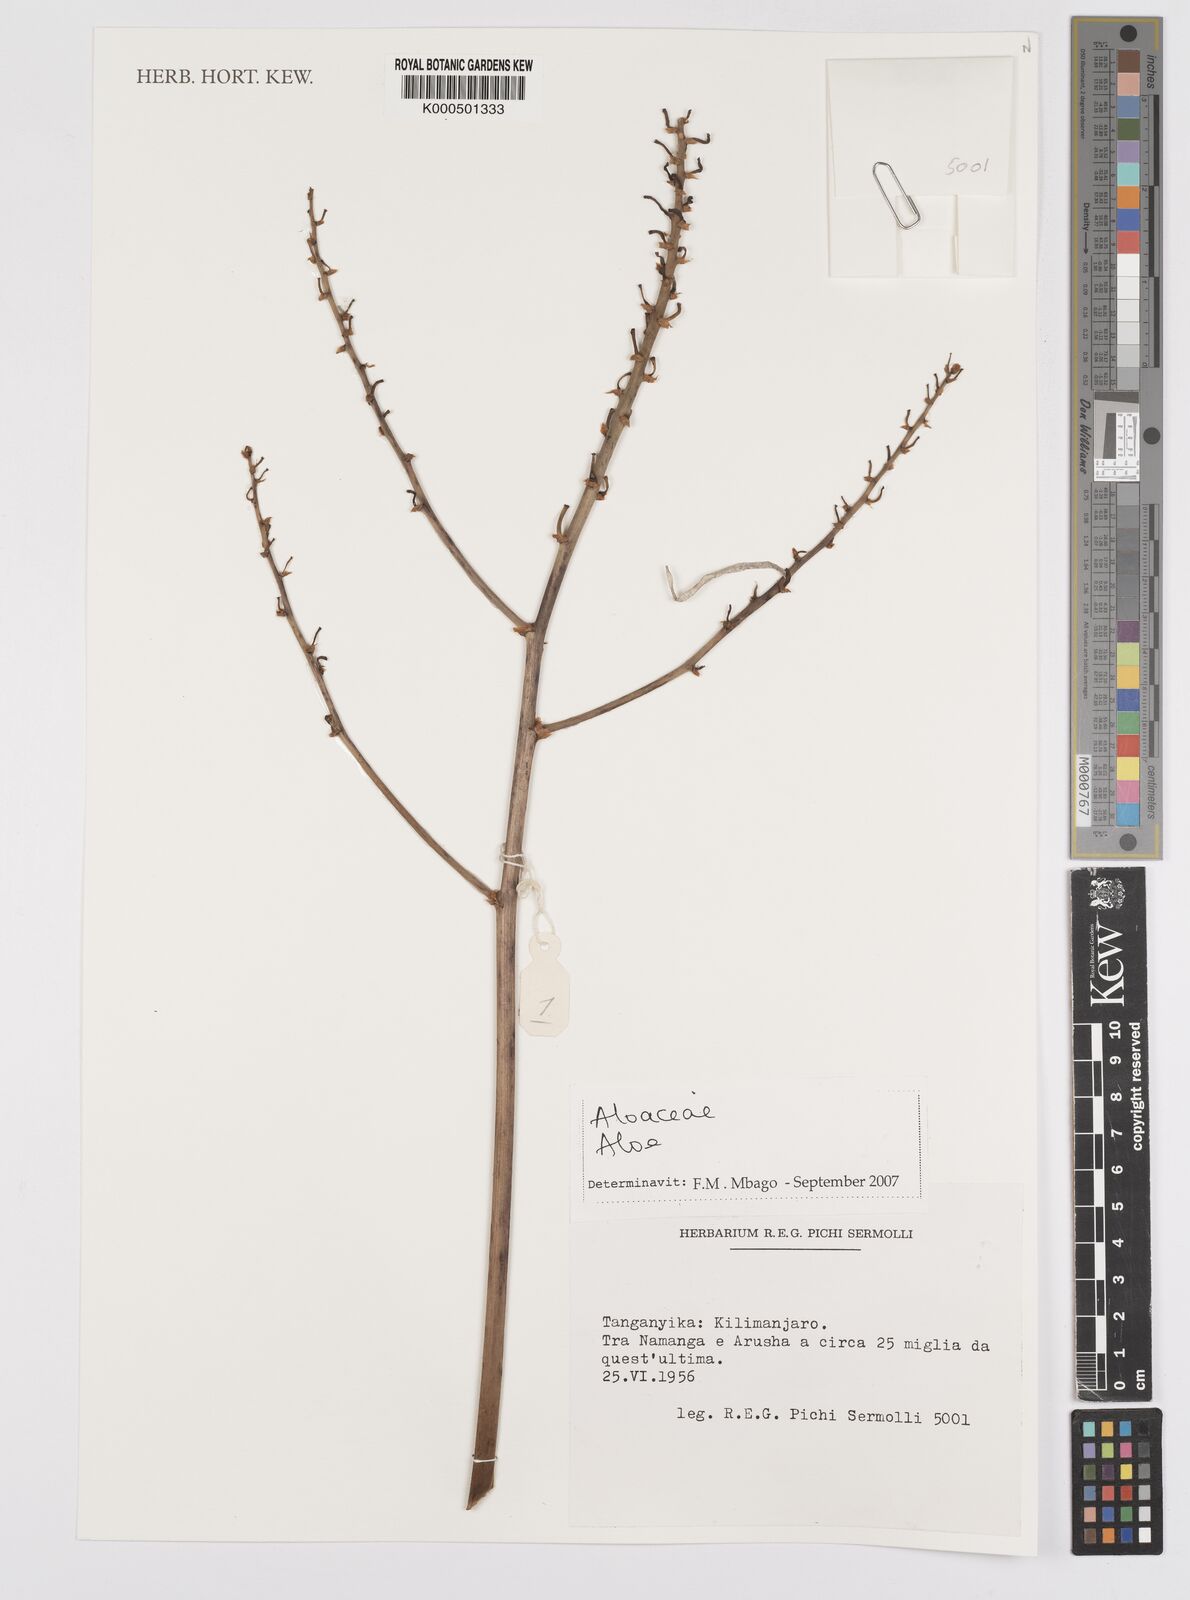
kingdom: Plantae
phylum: Tracheophyta
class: Liliopsida
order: Asparagales
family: Asphodelaceae
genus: Aloe
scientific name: Aloe secundiflora
